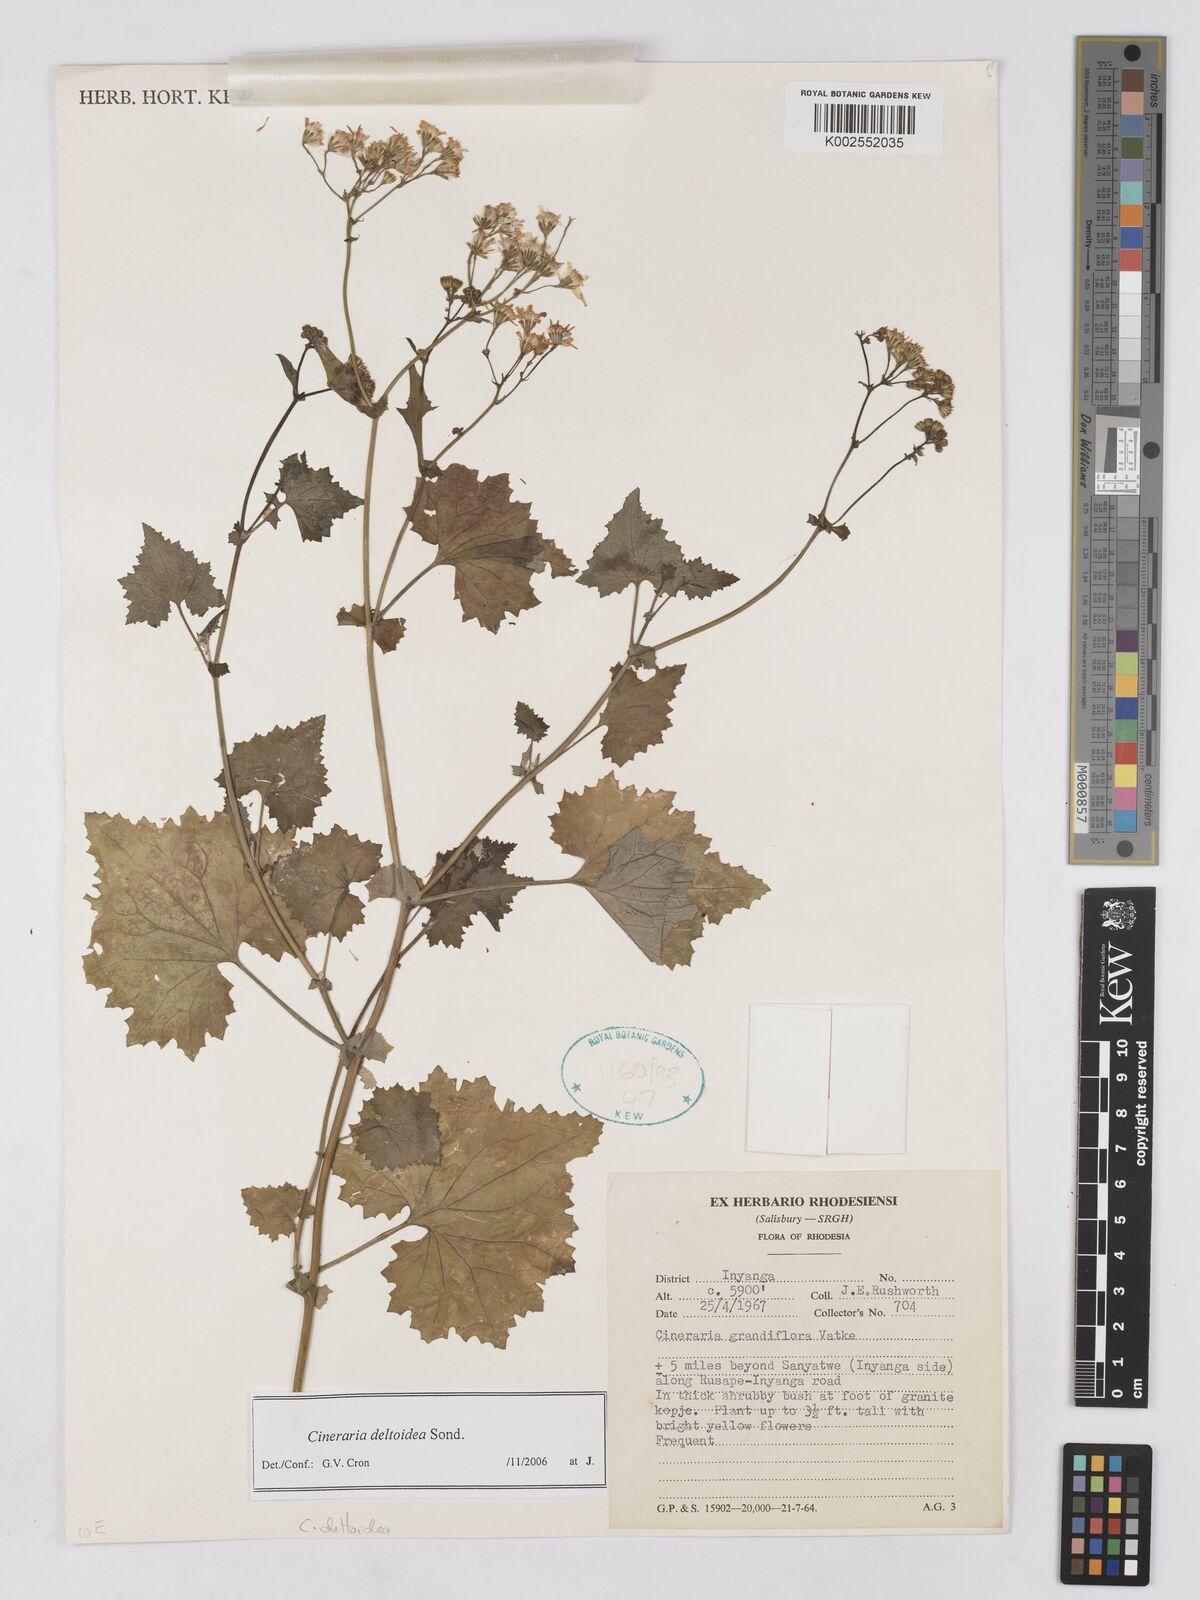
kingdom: Plantae
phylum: Tracheophyta
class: Magnoliopsida
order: Asterales
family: Asteraceae
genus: Cineraria
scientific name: Cineraria deltoidea
